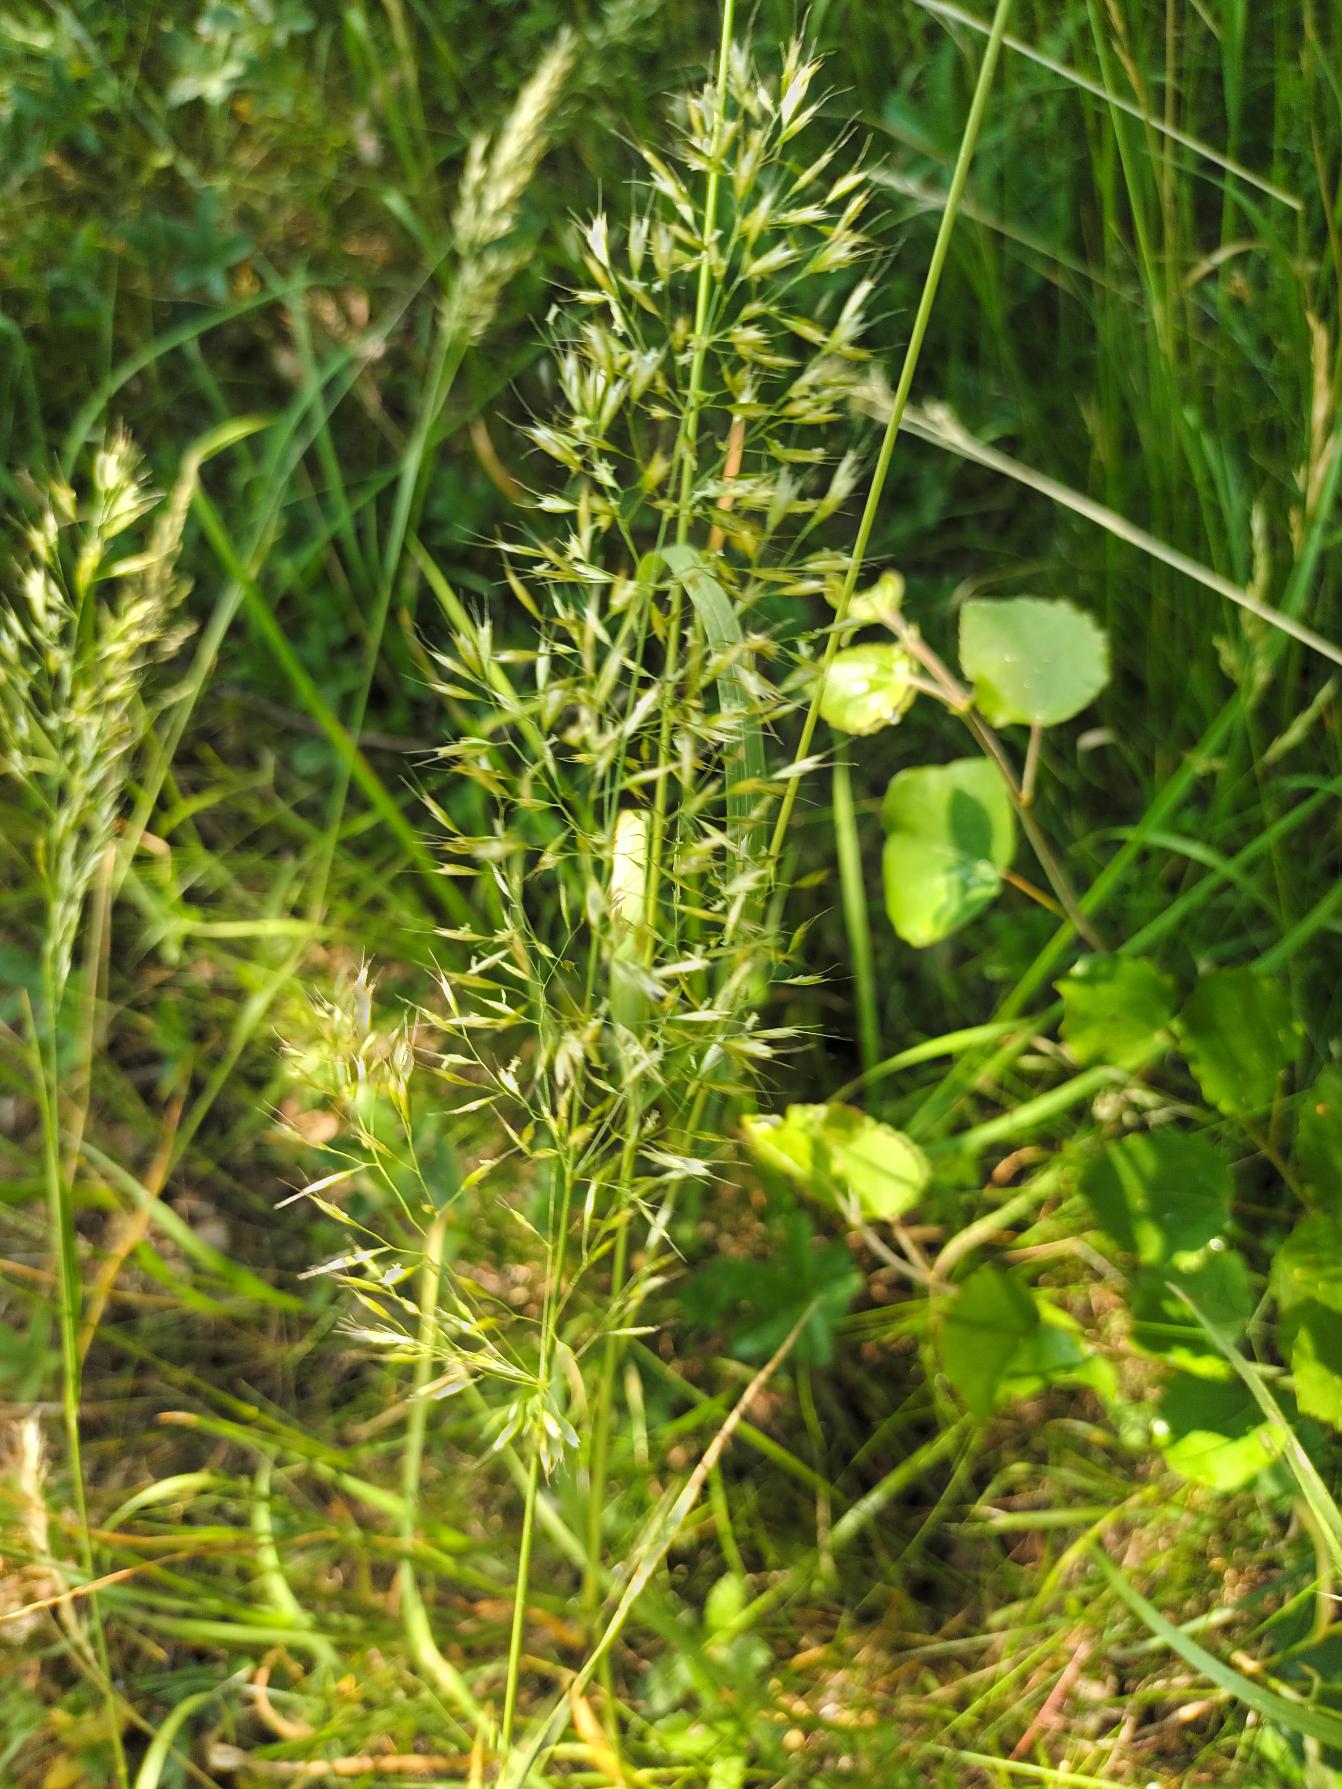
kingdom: Plantae
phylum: Tracheophyta
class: Liliopsida
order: Poales
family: Poaceae
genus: Trisetum
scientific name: Trisetum flavescens
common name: Guldhavre
